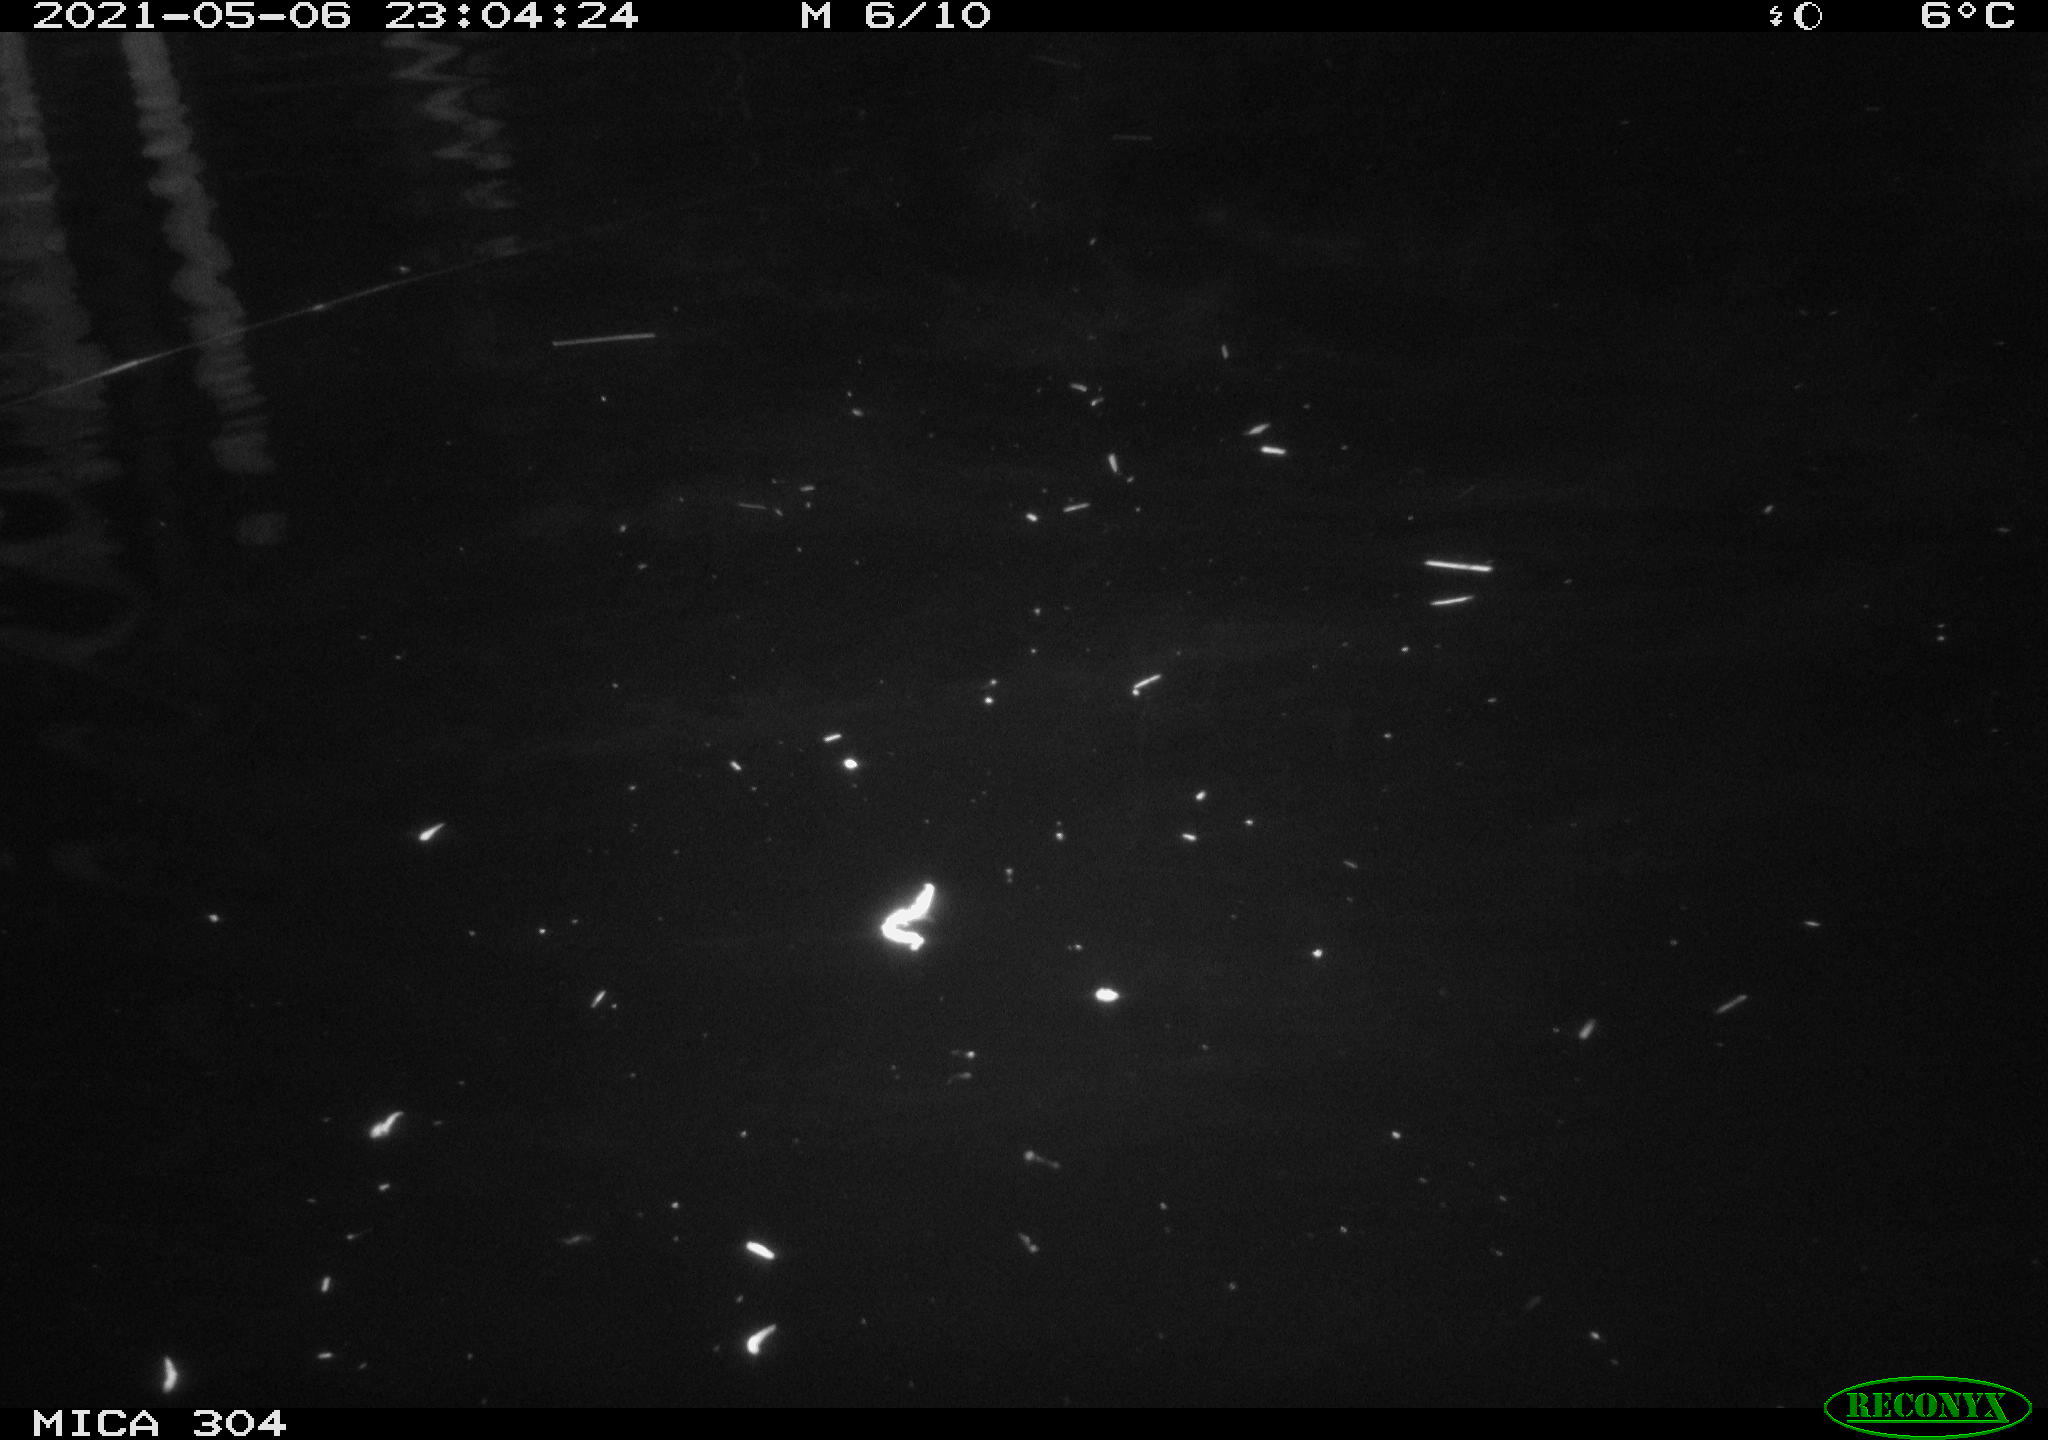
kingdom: Animalia
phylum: Chordata
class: Aves
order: Anseriformes
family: Anatidae
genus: Anas
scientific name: Anas platyrhynchos
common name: Mallard
